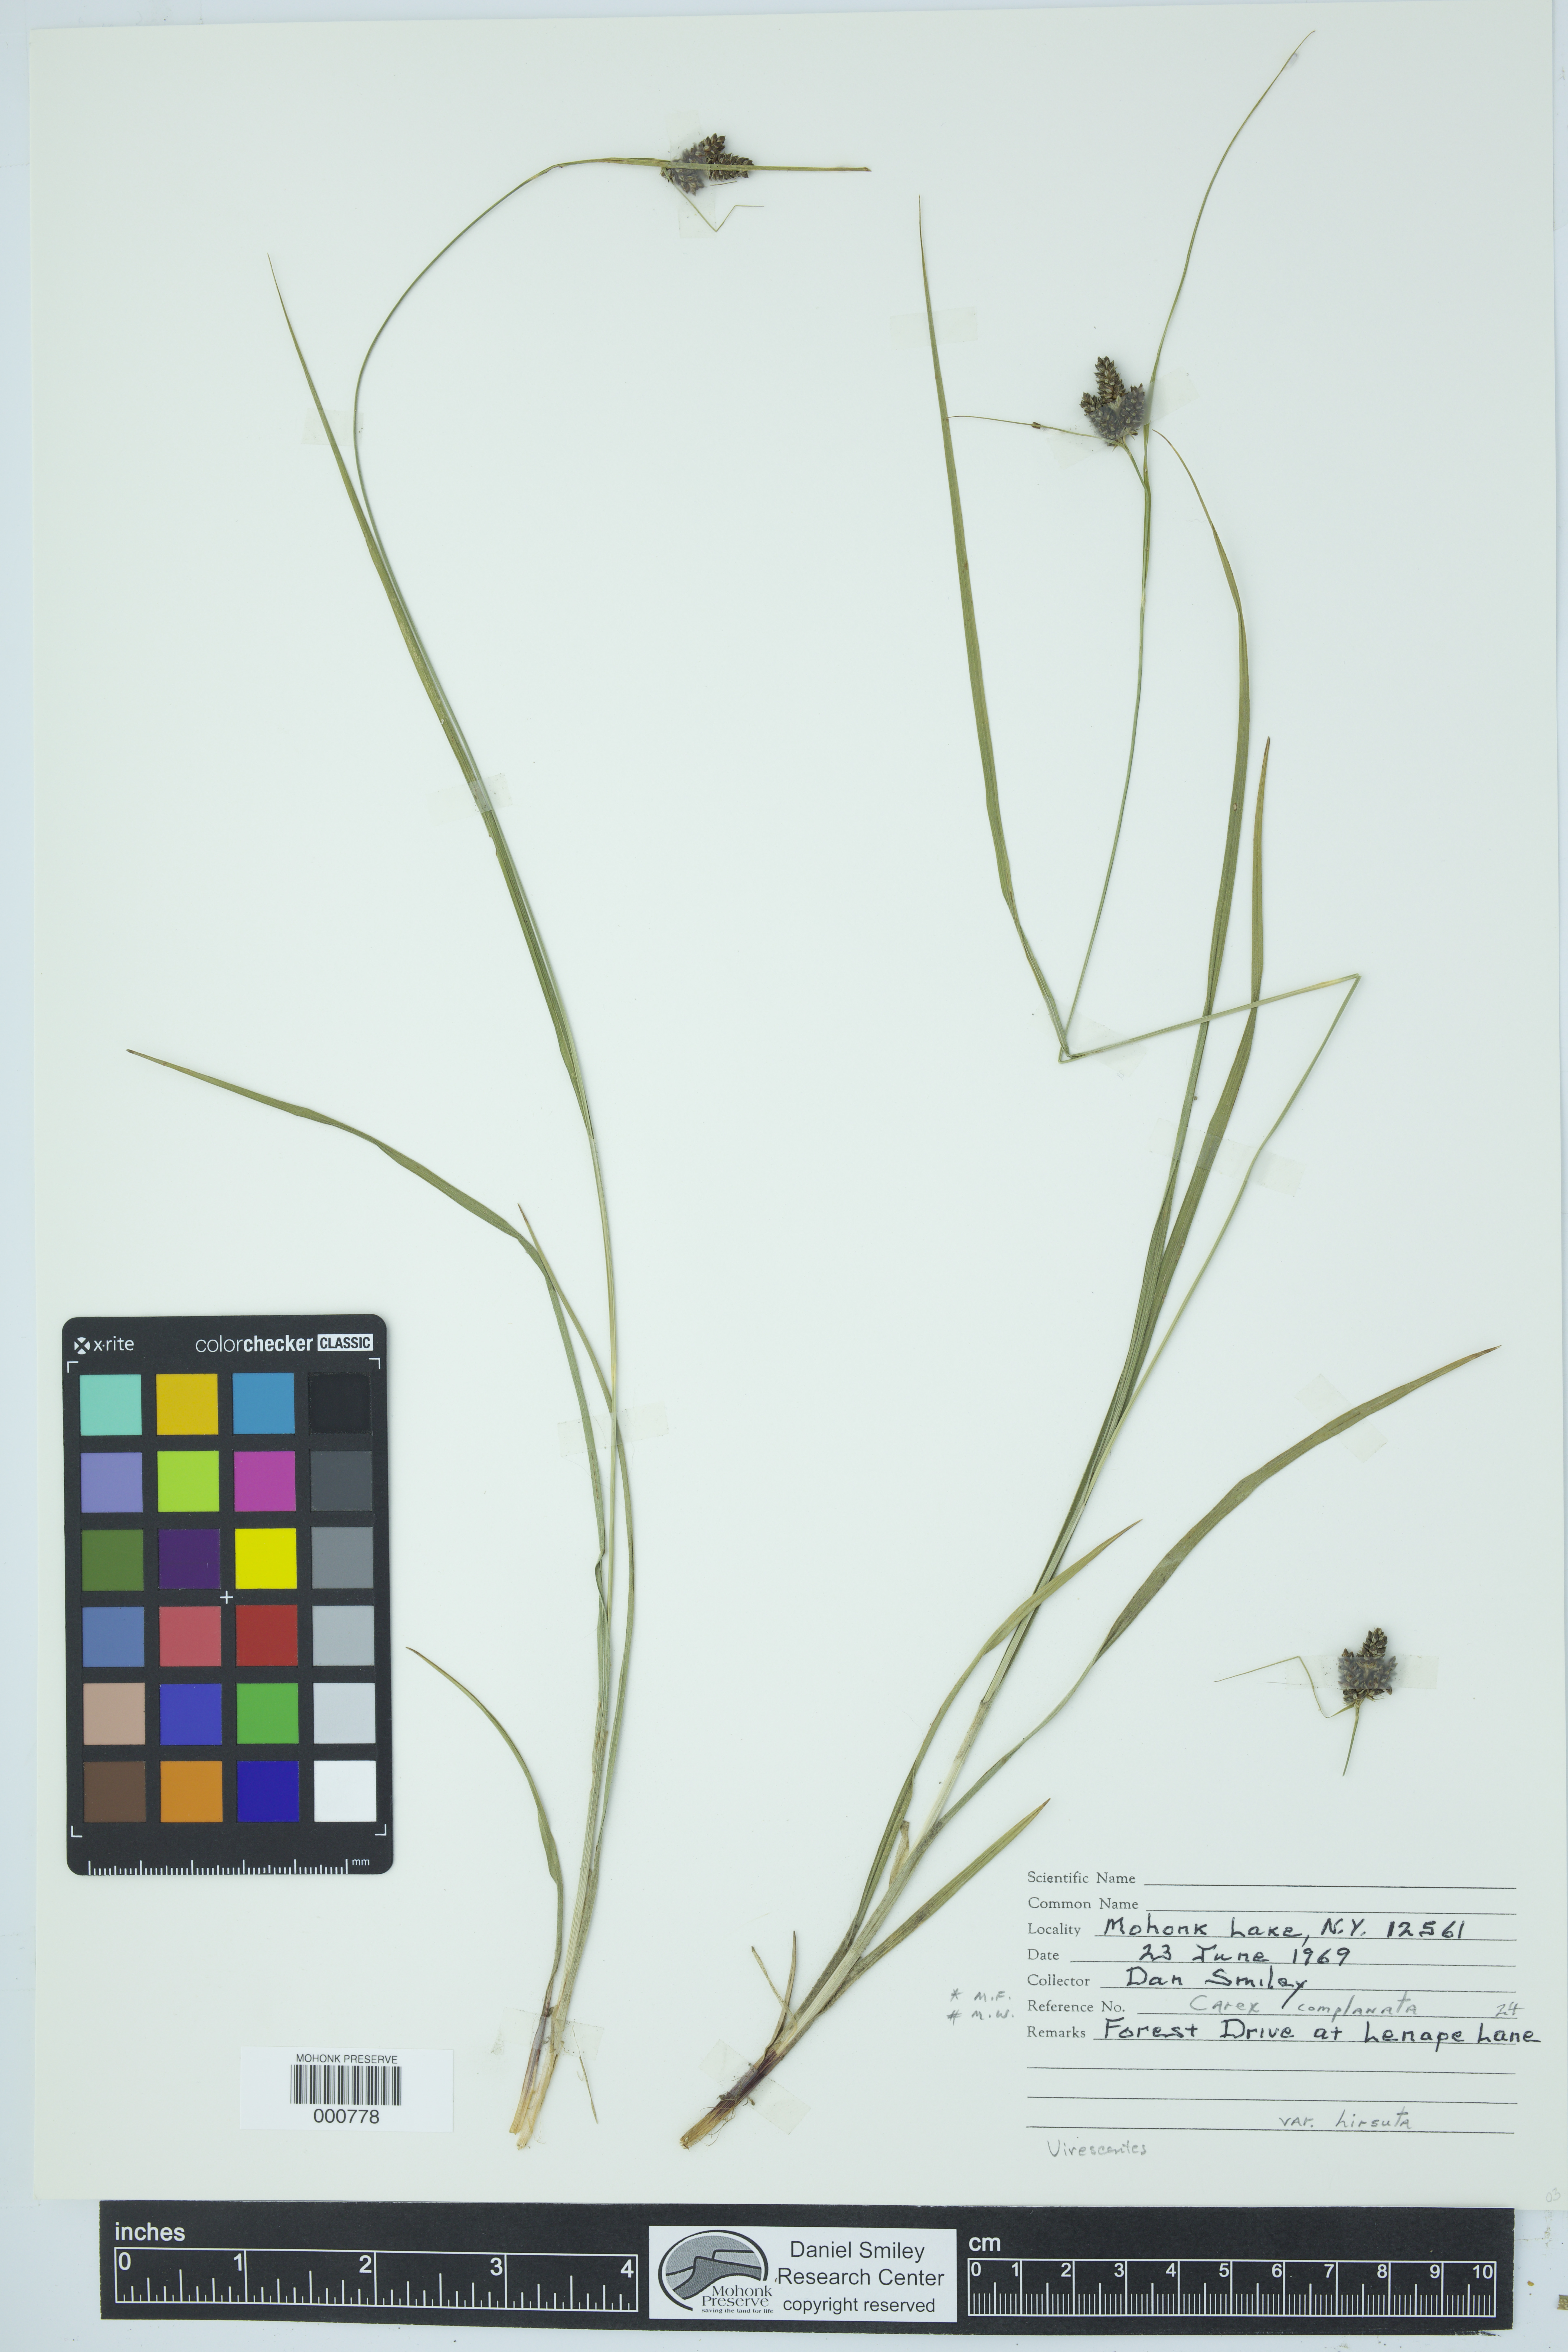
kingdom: Plantae
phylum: Tracheophyta
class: Liliopsida
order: Poales
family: Cyperaceae
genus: Carex
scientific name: Carex complanata
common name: Hirsute sedge
